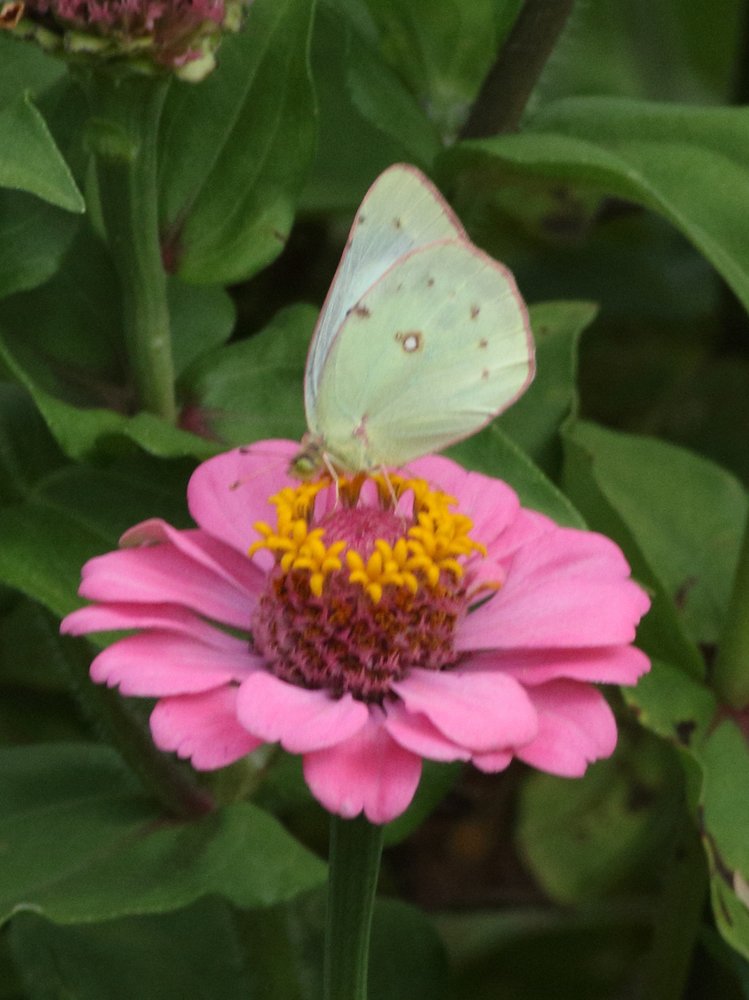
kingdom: Animalia
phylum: Arthropoda
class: Insecta
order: Lepidoptera
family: Pieridae
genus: Colias
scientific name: Colias eurytheme
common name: Orange Sulphur
